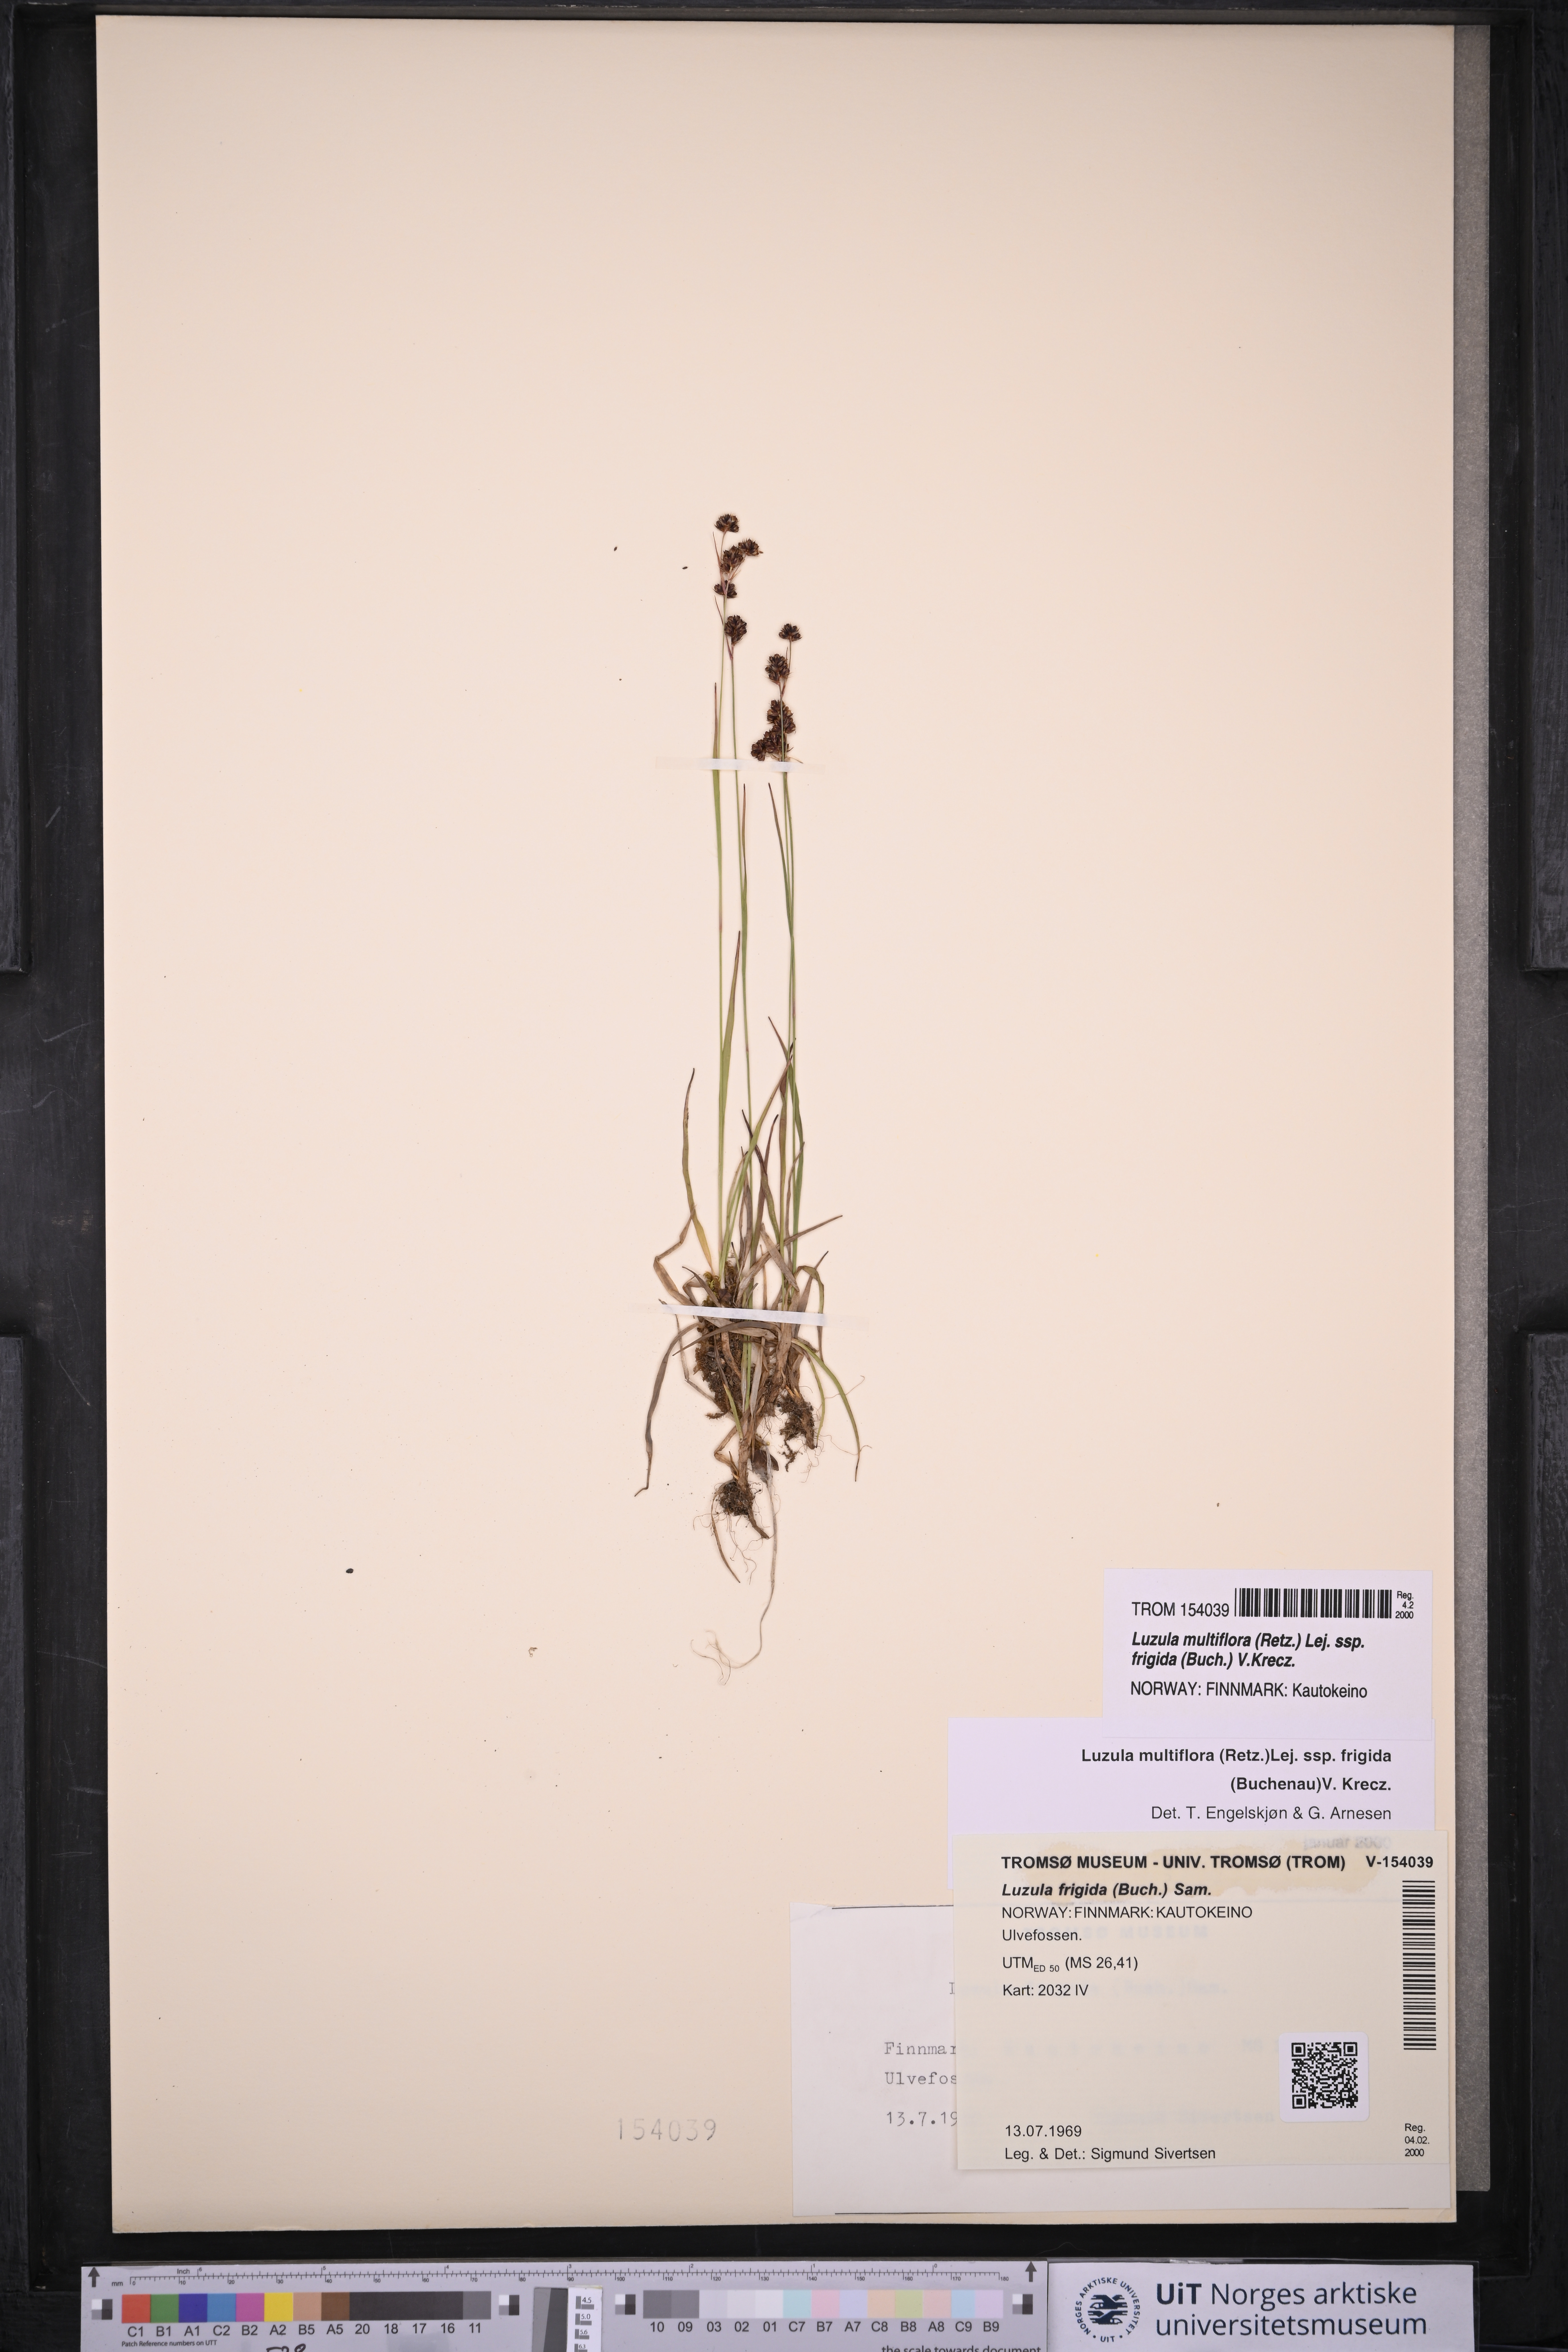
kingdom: Plantae
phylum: Tracheophyta
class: Liliopsida
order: Poales
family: Juncaceae
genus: Luzula
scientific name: Luzula multiflora
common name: Heath wood-rush
